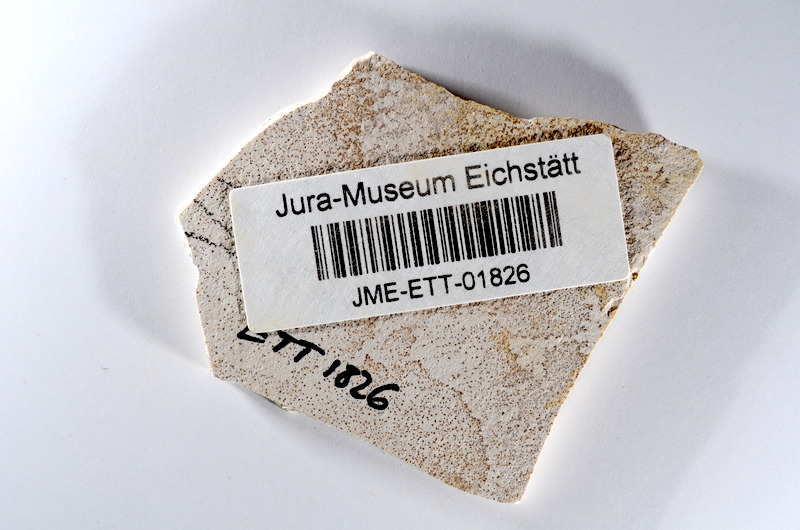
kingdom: Animalia
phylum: Chordata
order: Salmoniformes
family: Orthogonikleithridae
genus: Orthogonikleithrus
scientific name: Orthogonikleithrus hoelli
